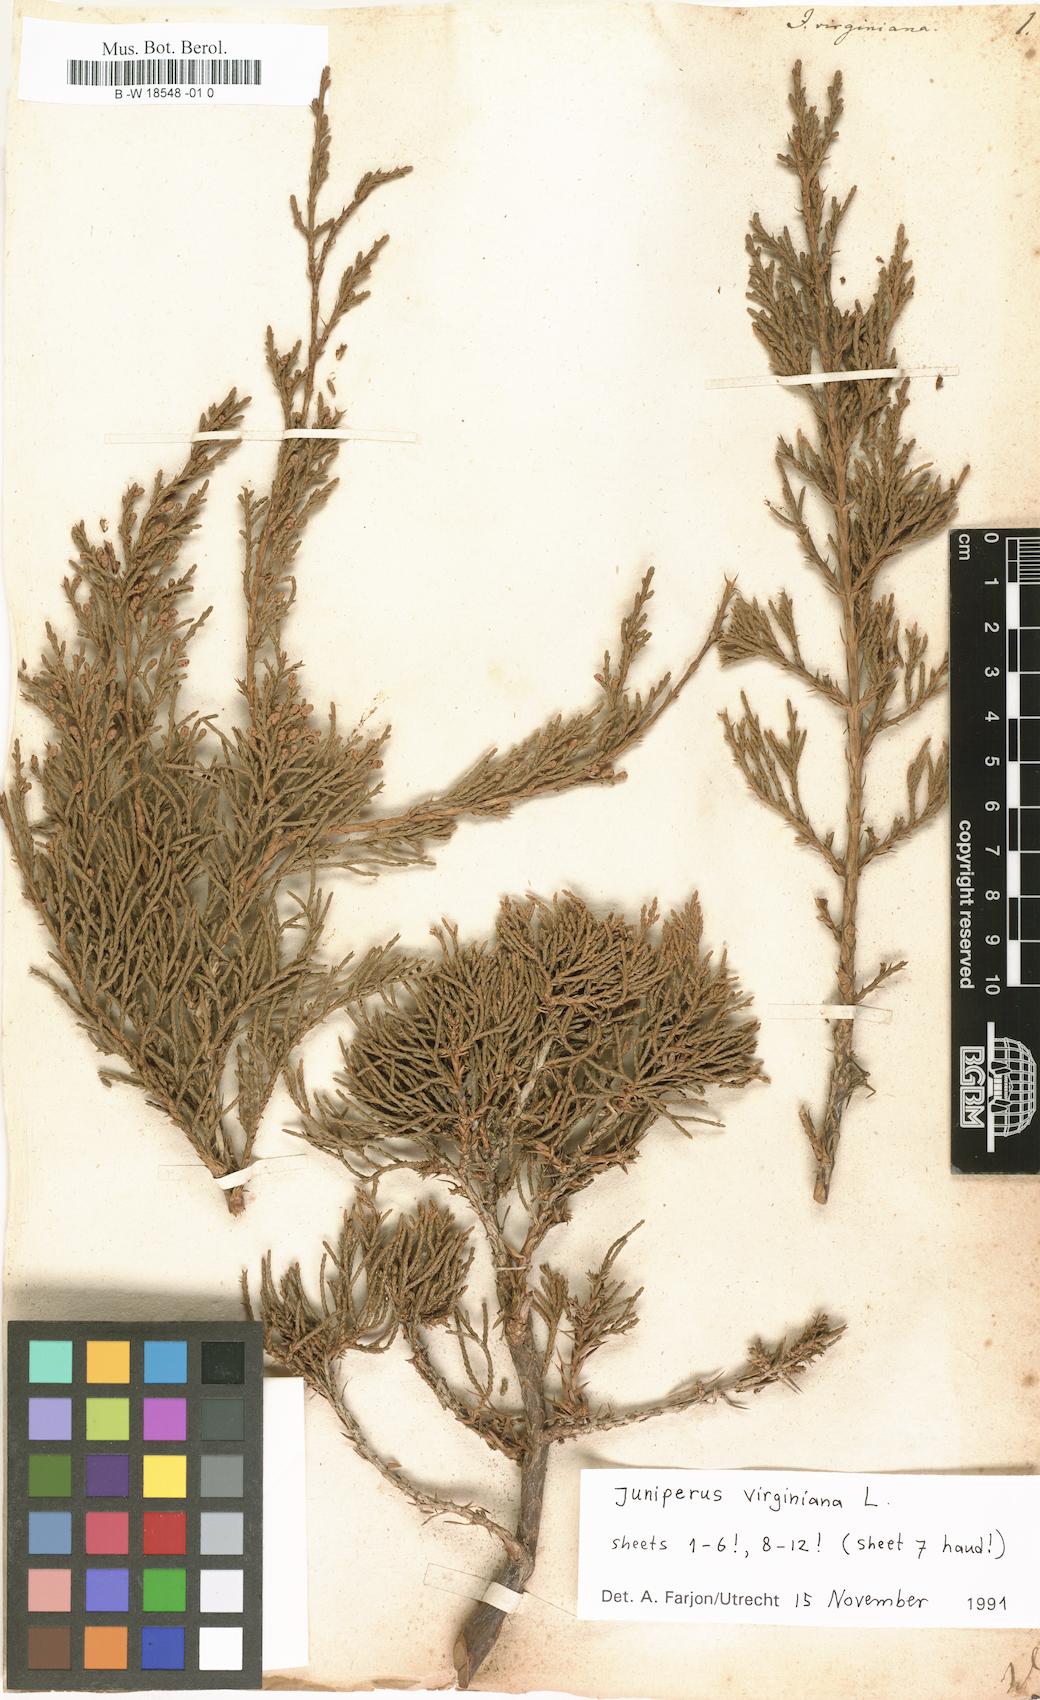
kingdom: Plantae
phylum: Tracheophyta
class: Pinopsida
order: Pinales
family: Cupressaceae
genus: Juniperus
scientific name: Juniperus virginiana
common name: Red juniper
